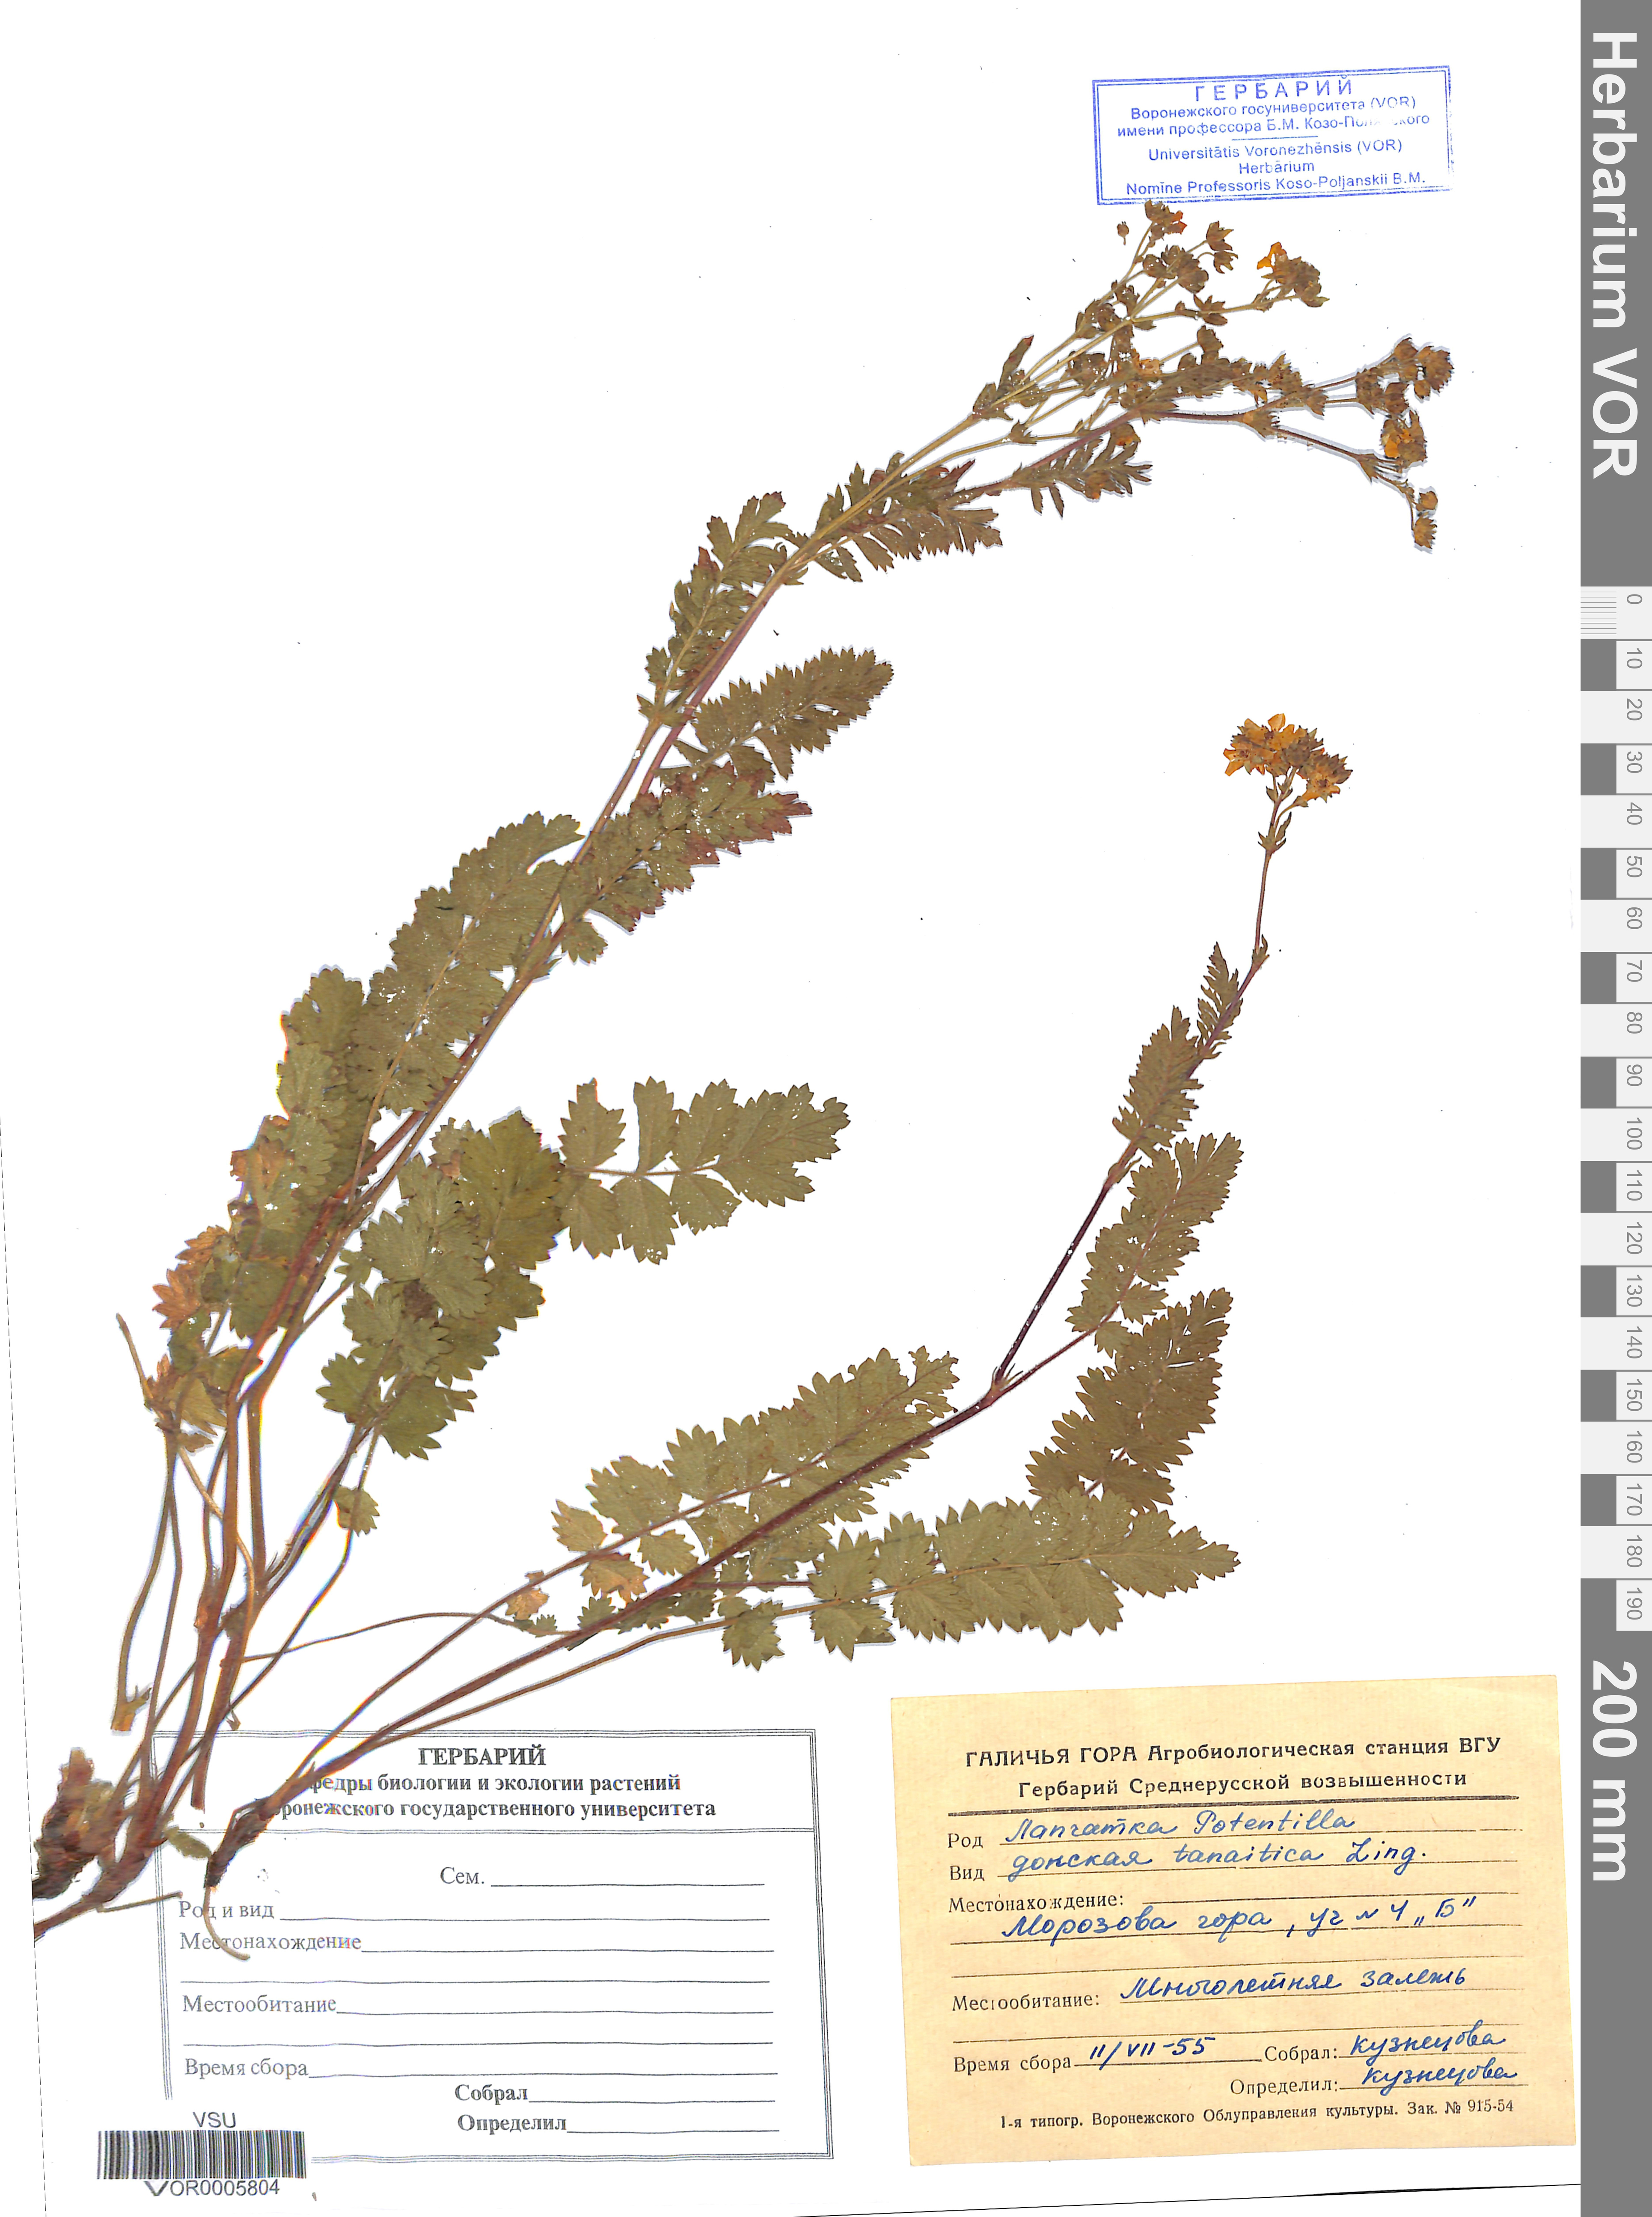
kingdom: Plantae
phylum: Tracheophyta
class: Magnoliopsida
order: Rosales
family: Rosaceae
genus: Potentilla
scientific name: Potentilla tanaitica
